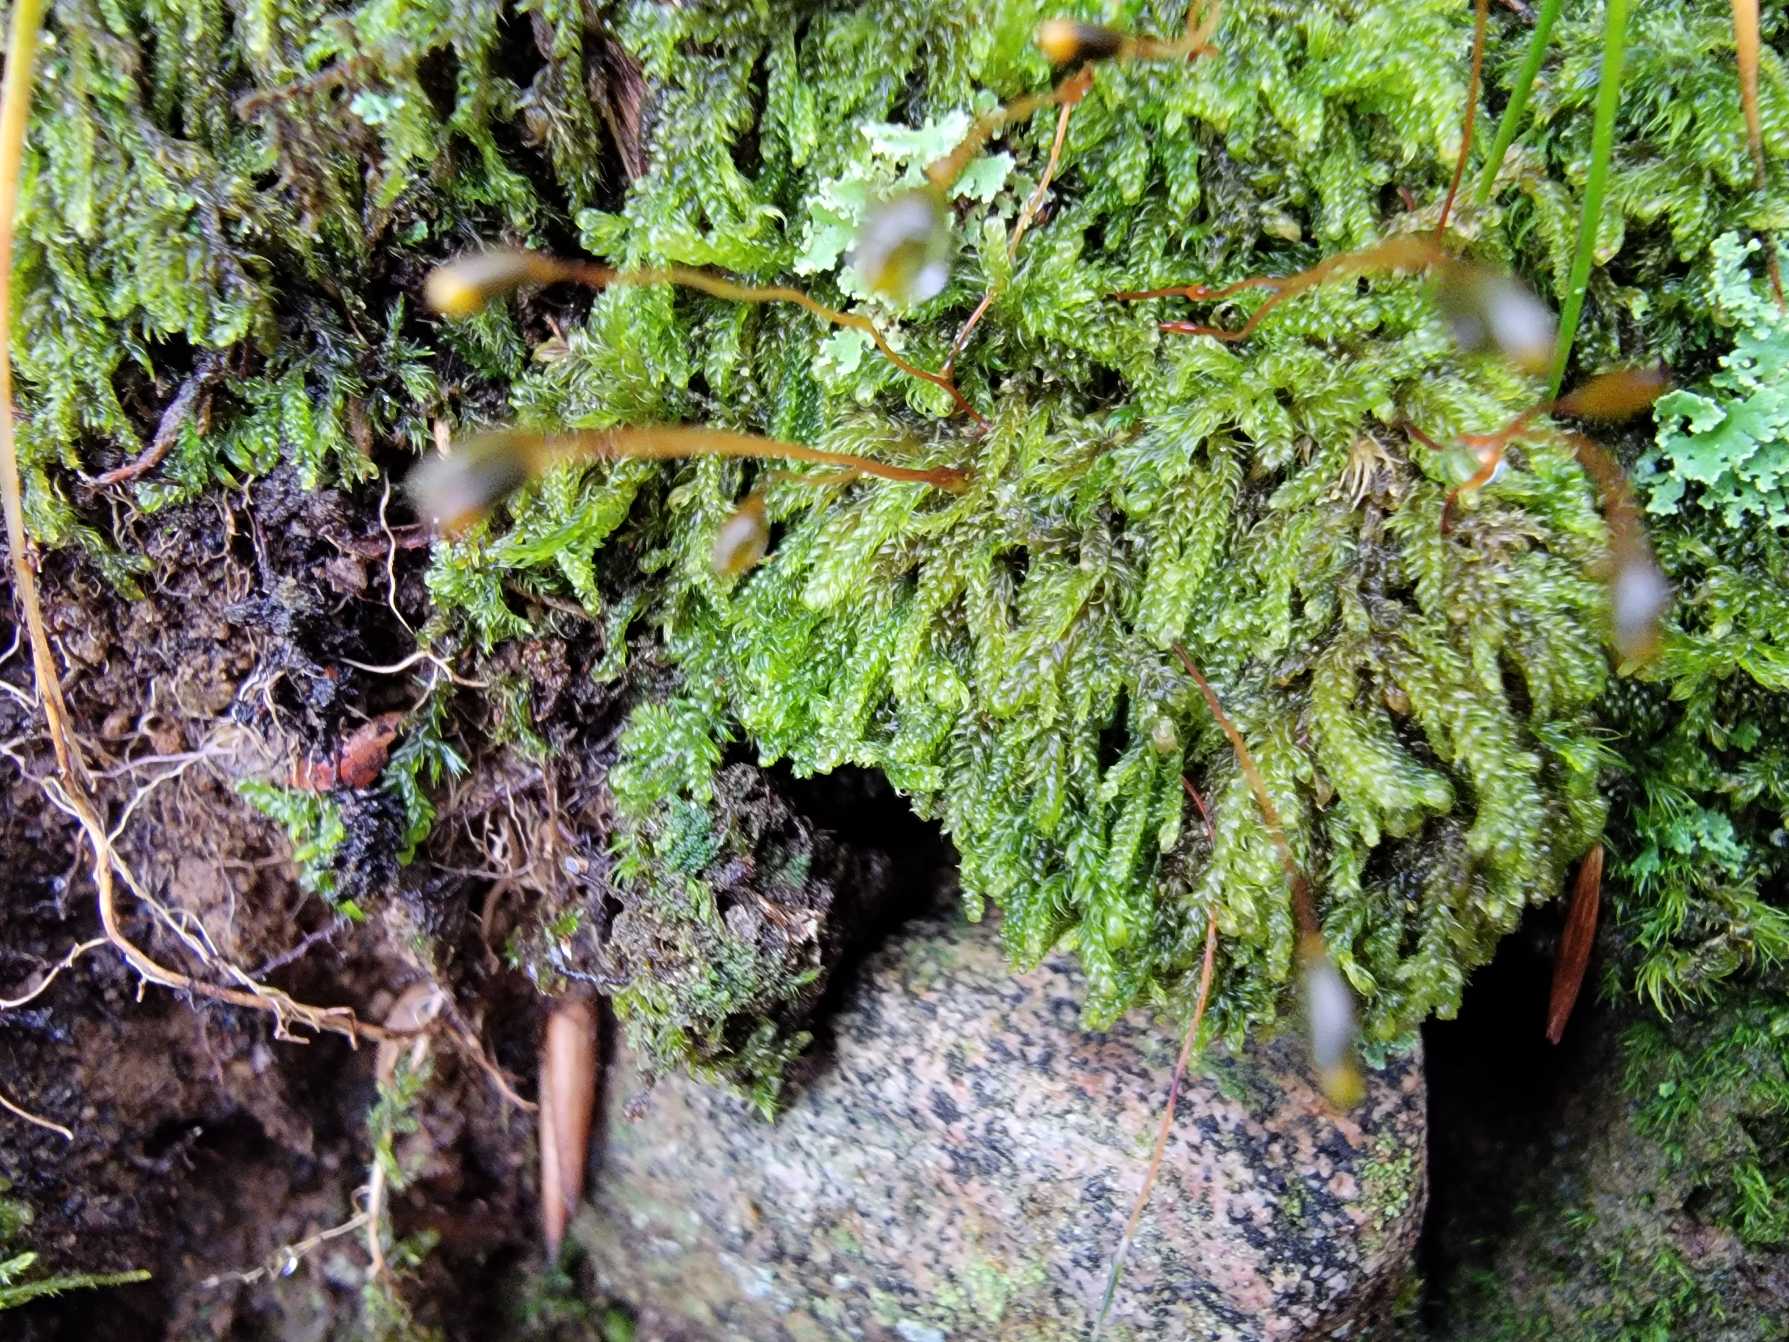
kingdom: Plantae
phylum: Bryophyta
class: Bryopsida
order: Hypnales
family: Hypnaceae
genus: Hypnum
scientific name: Hypnum andoi
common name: Vortet cypresmos
